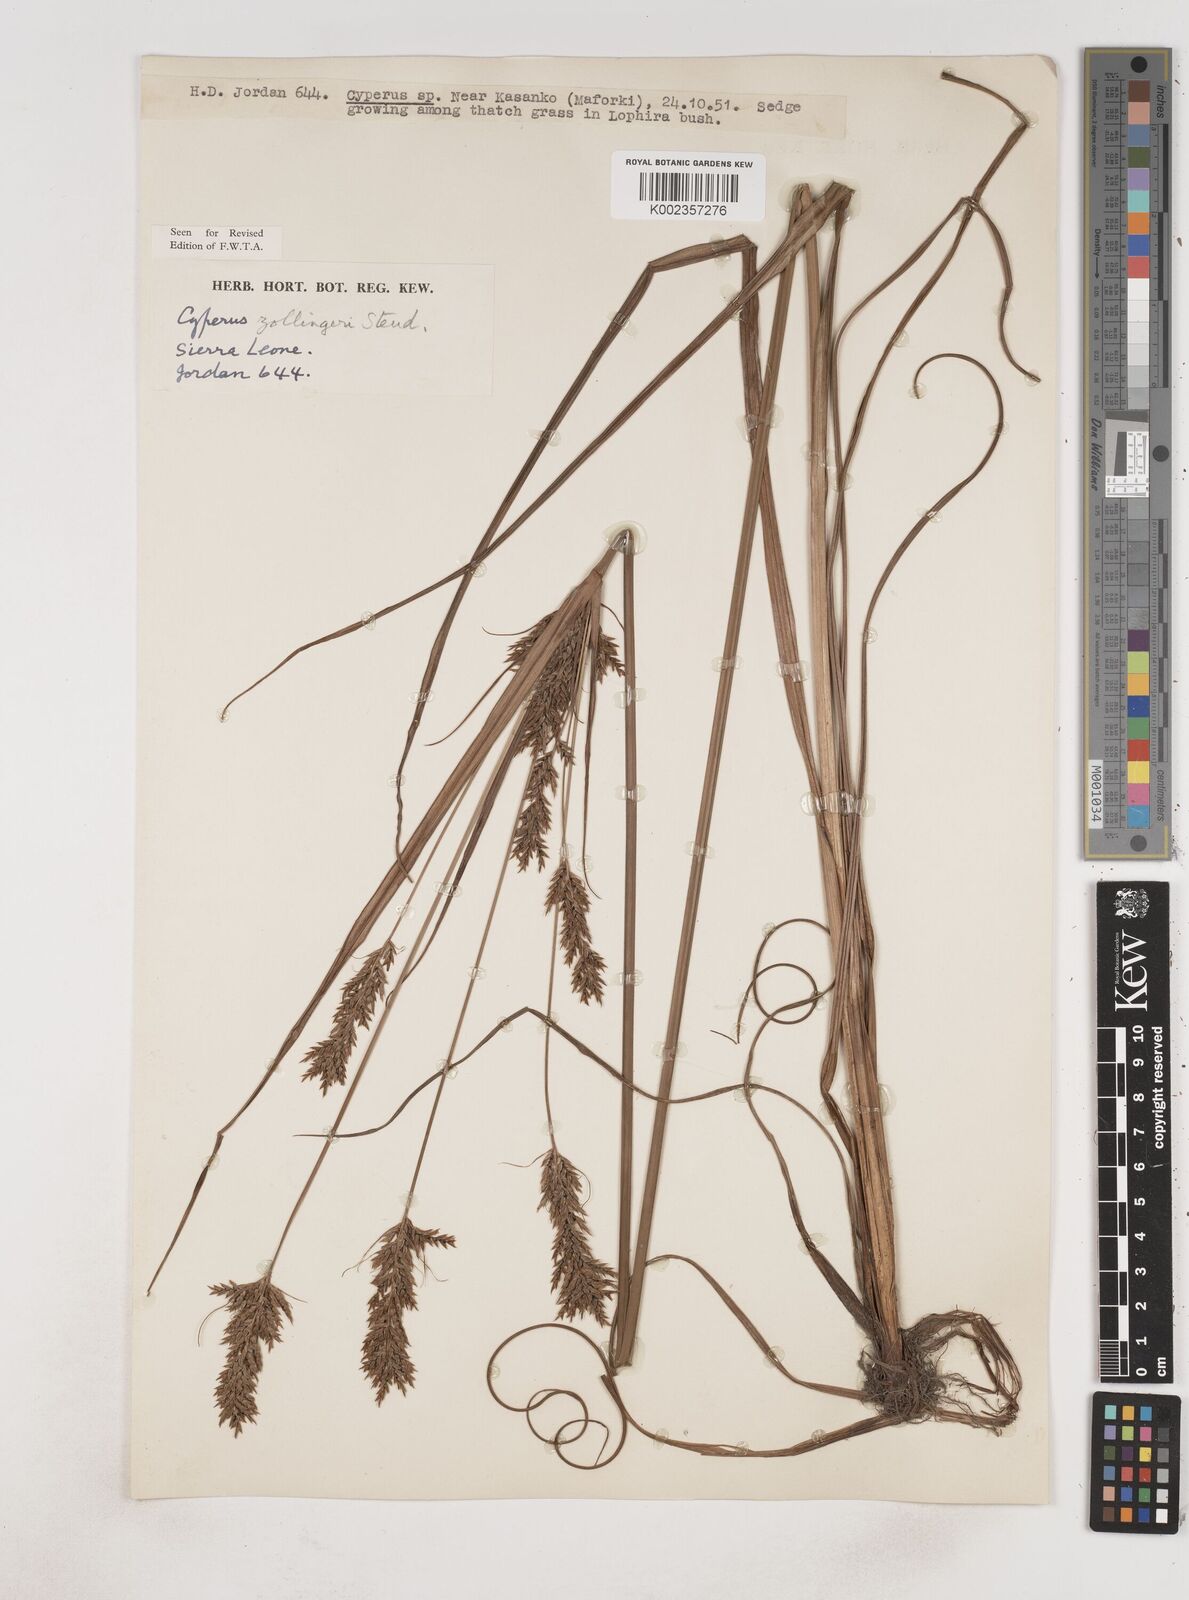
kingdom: Plantae
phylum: Tracheophyta
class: Liliopsida
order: Poales
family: Cyperaceae
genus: Cyperus
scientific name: Cyperus
